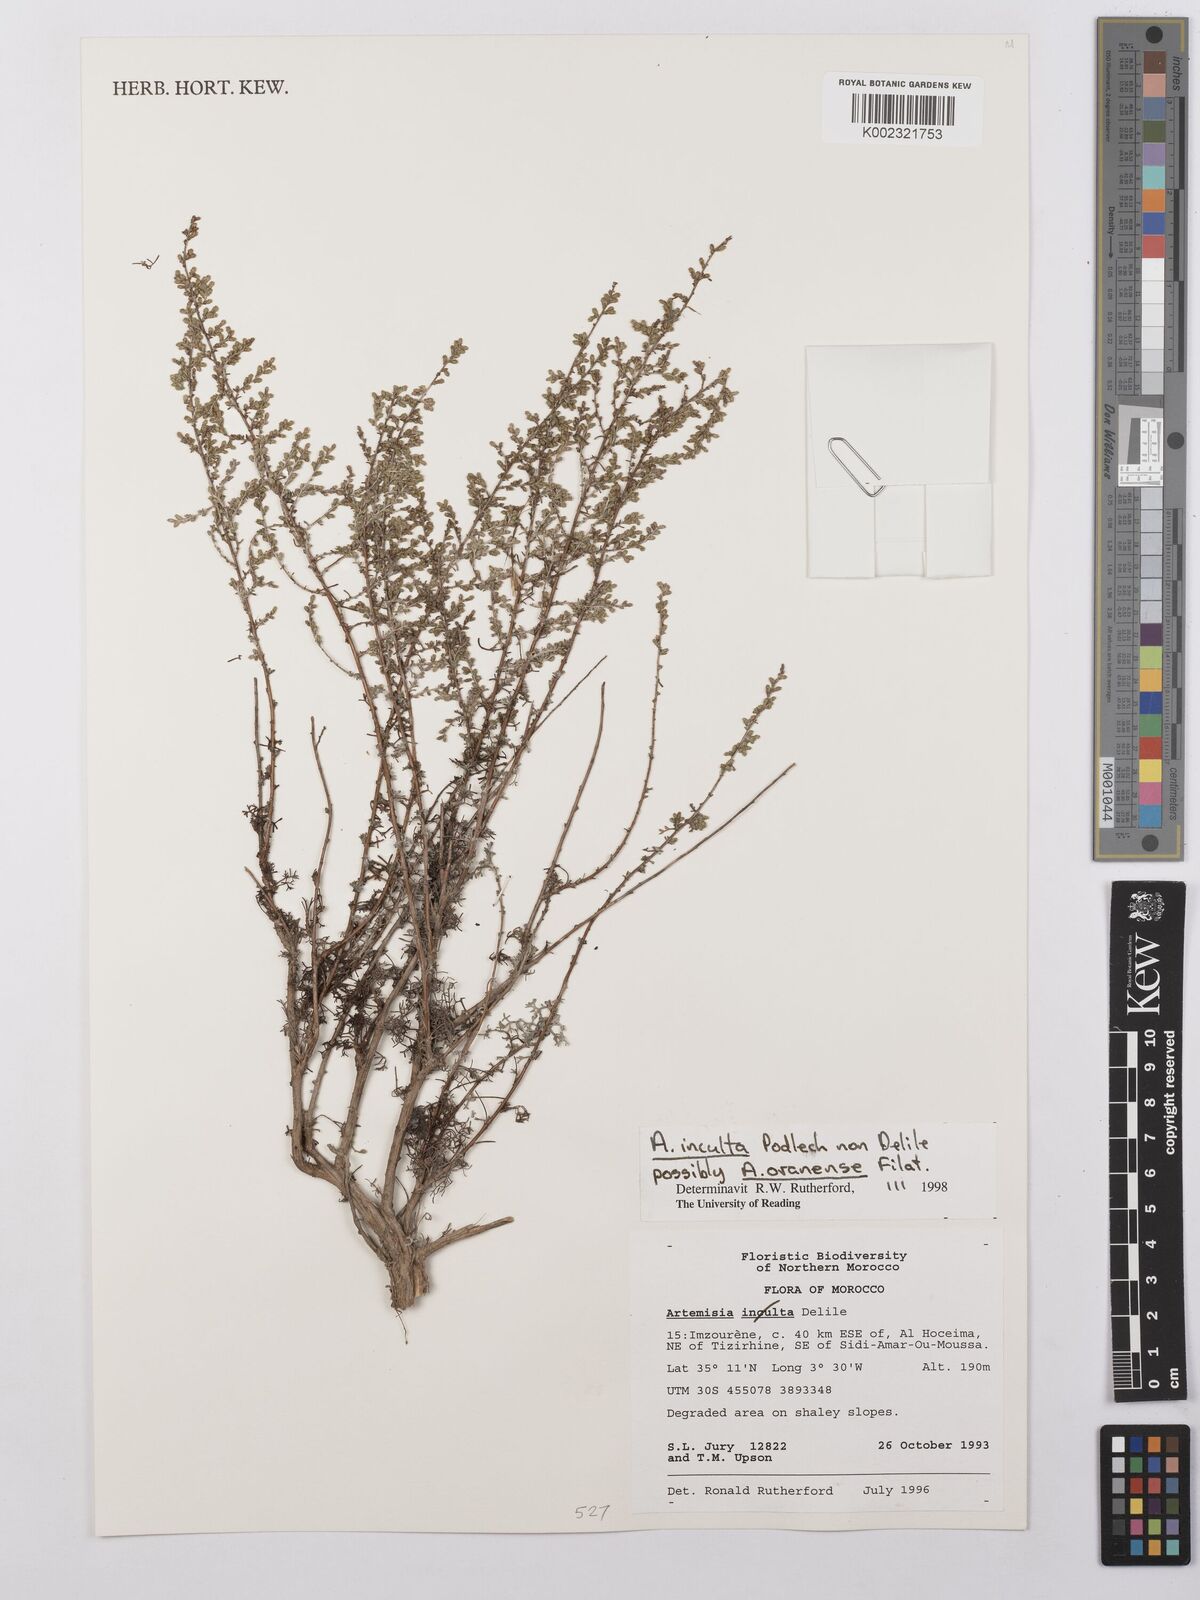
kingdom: Plantae
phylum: Tracheophyta
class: Magnoliopsida
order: Asterales
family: Asteraceae
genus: Artemisia
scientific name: Artemisia sieberi
